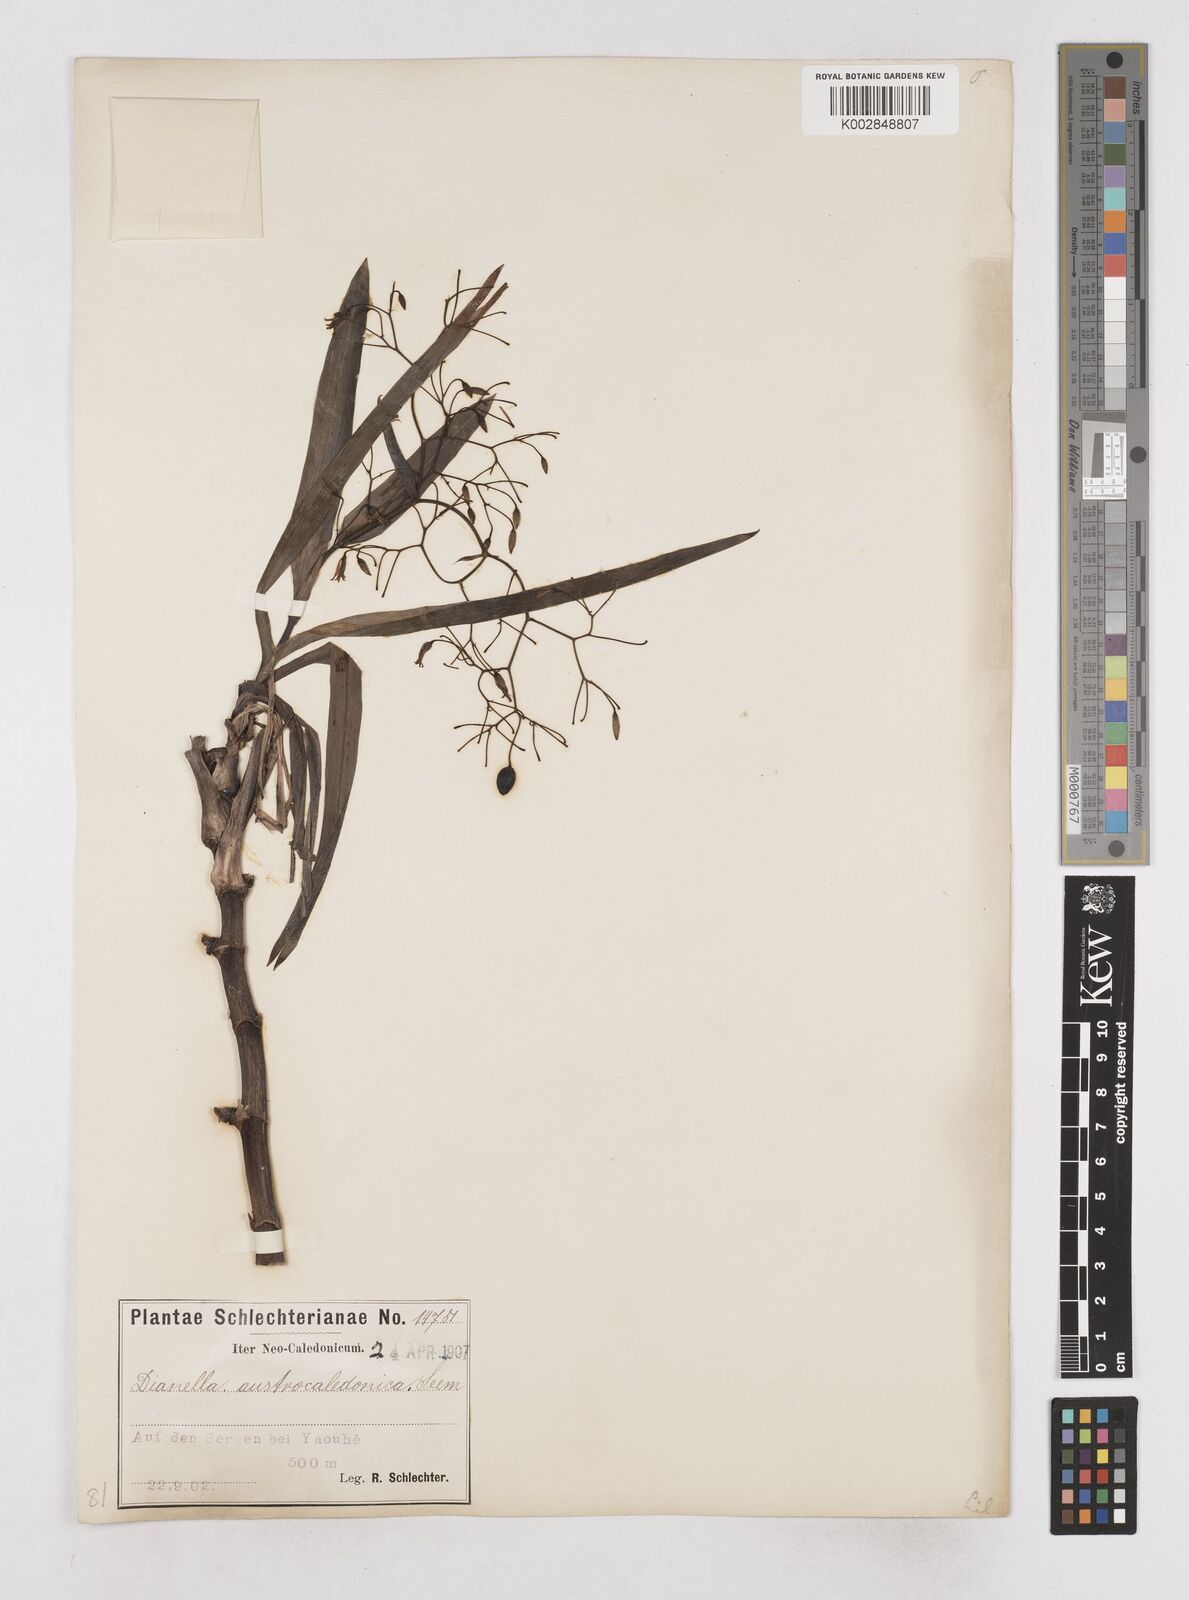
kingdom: Plantae
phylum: Tracheophyta
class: Liliopsida
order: Asparagales
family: Asphodelaceae
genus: Rhuacophila
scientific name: Rhuacophila javanica
